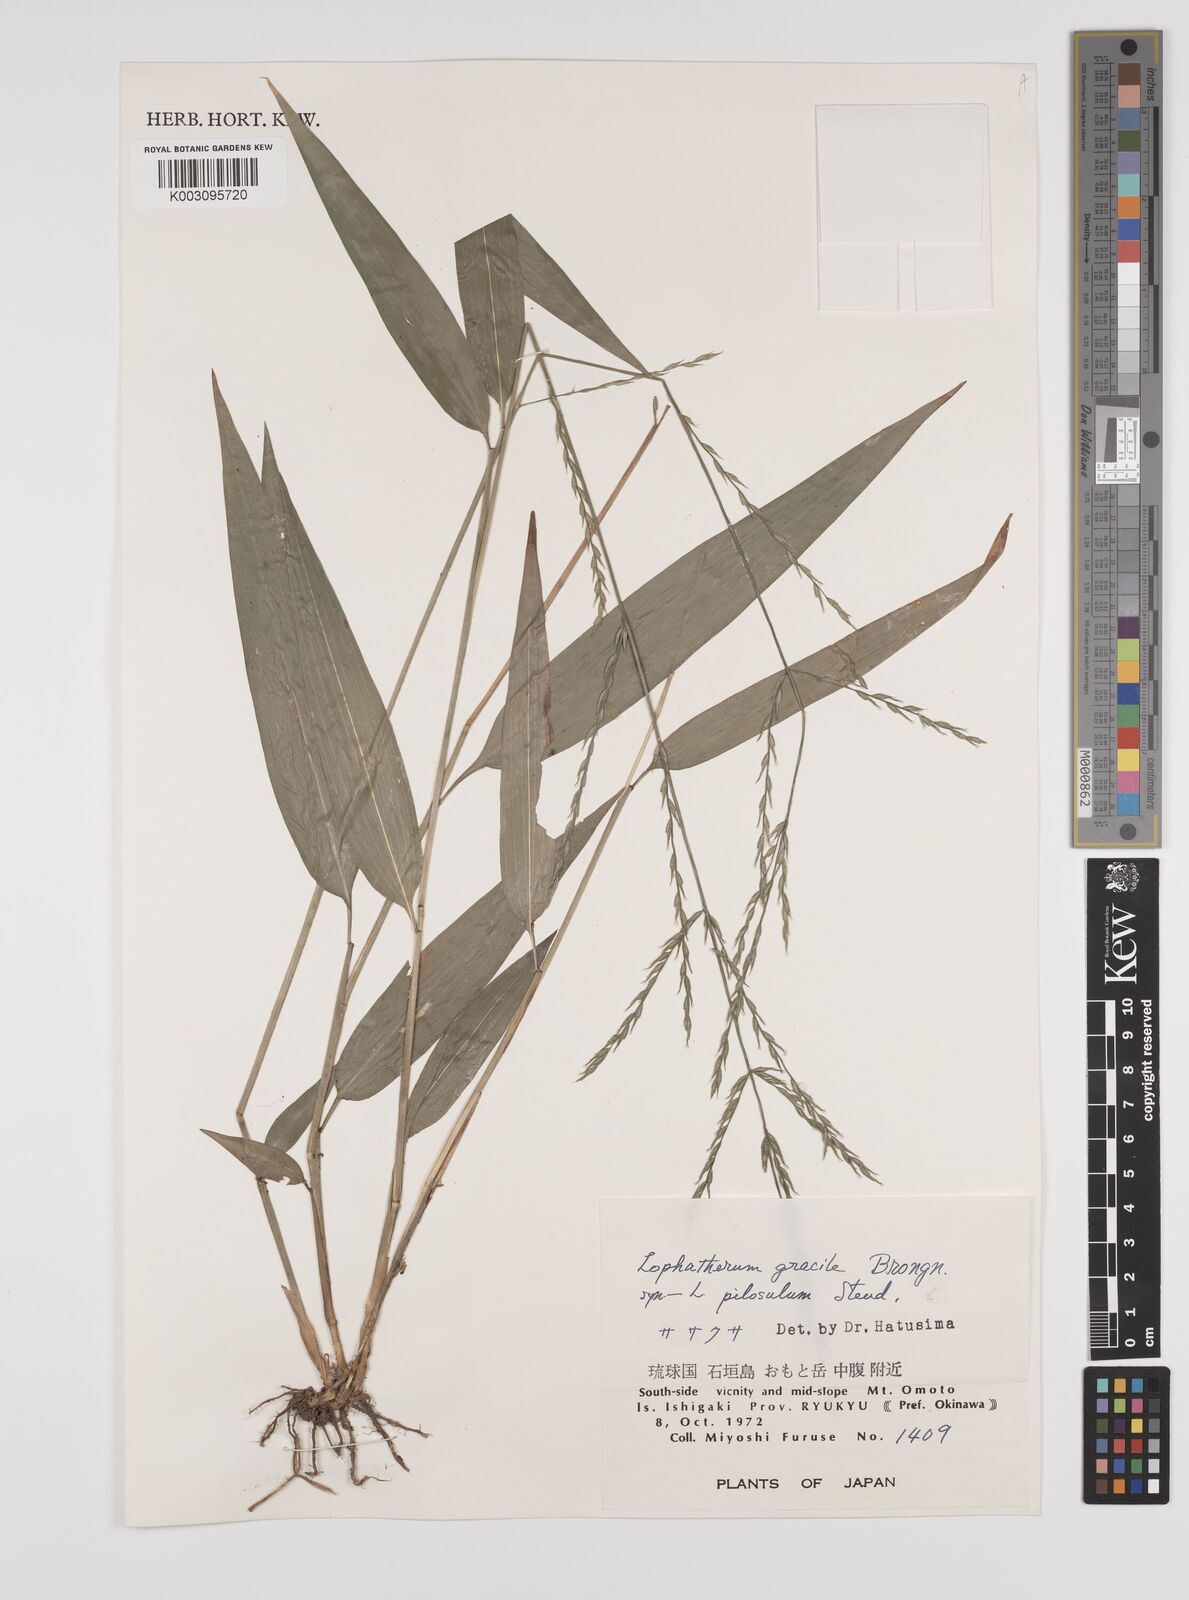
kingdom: Plantae
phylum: Tracheophyta
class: Liliopsida
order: Poales
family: Poaceae
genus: Lophatherum
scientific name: Lophatherum gracile
